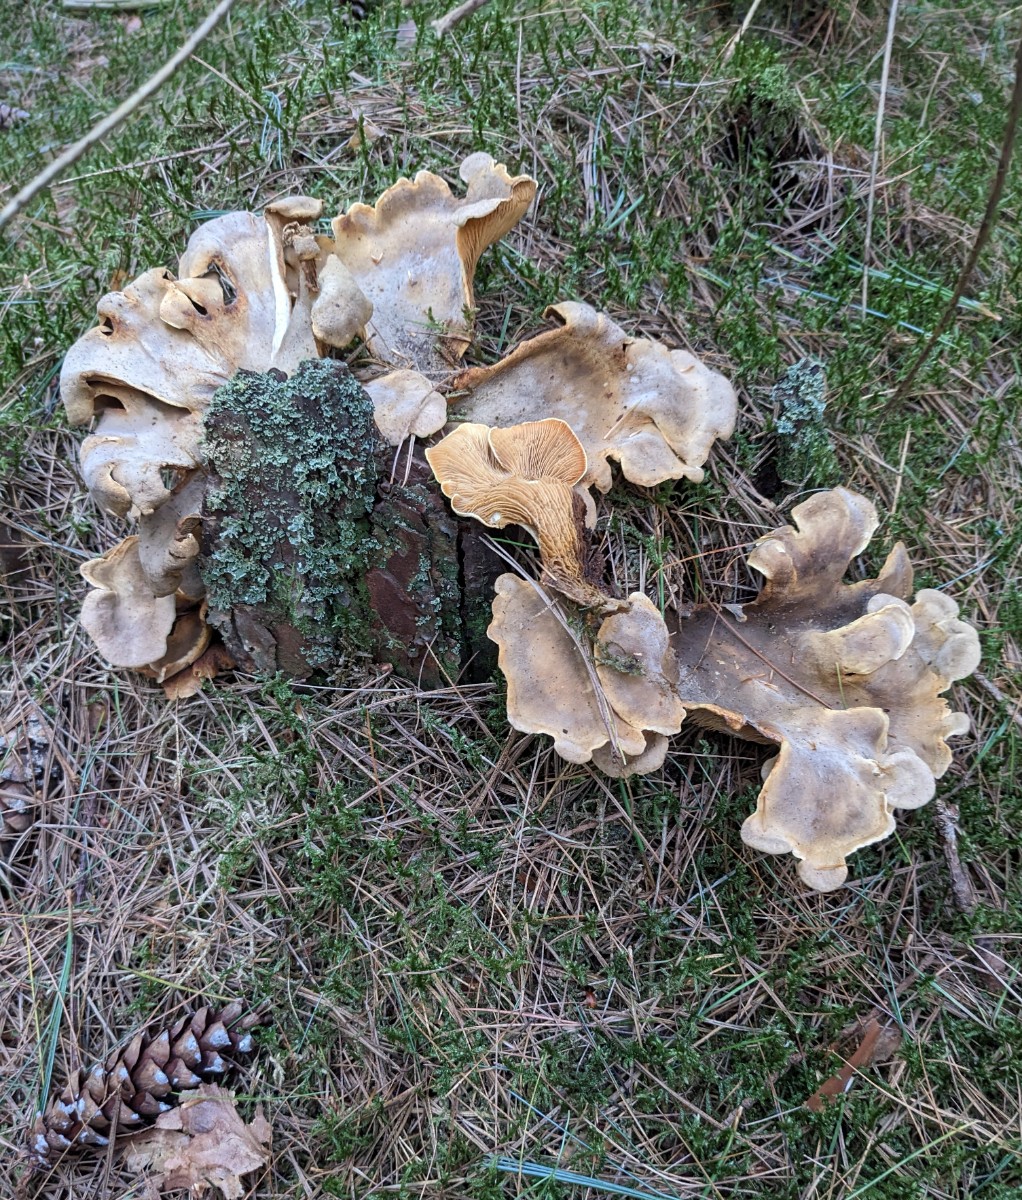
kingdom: Fungi
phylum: Basidiomycota
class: Agaricomycetes
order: Boletales
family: Tapinellaceae
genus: Tapinella
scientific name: Tapinella panuoides
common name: tømmer-viftesvamp
